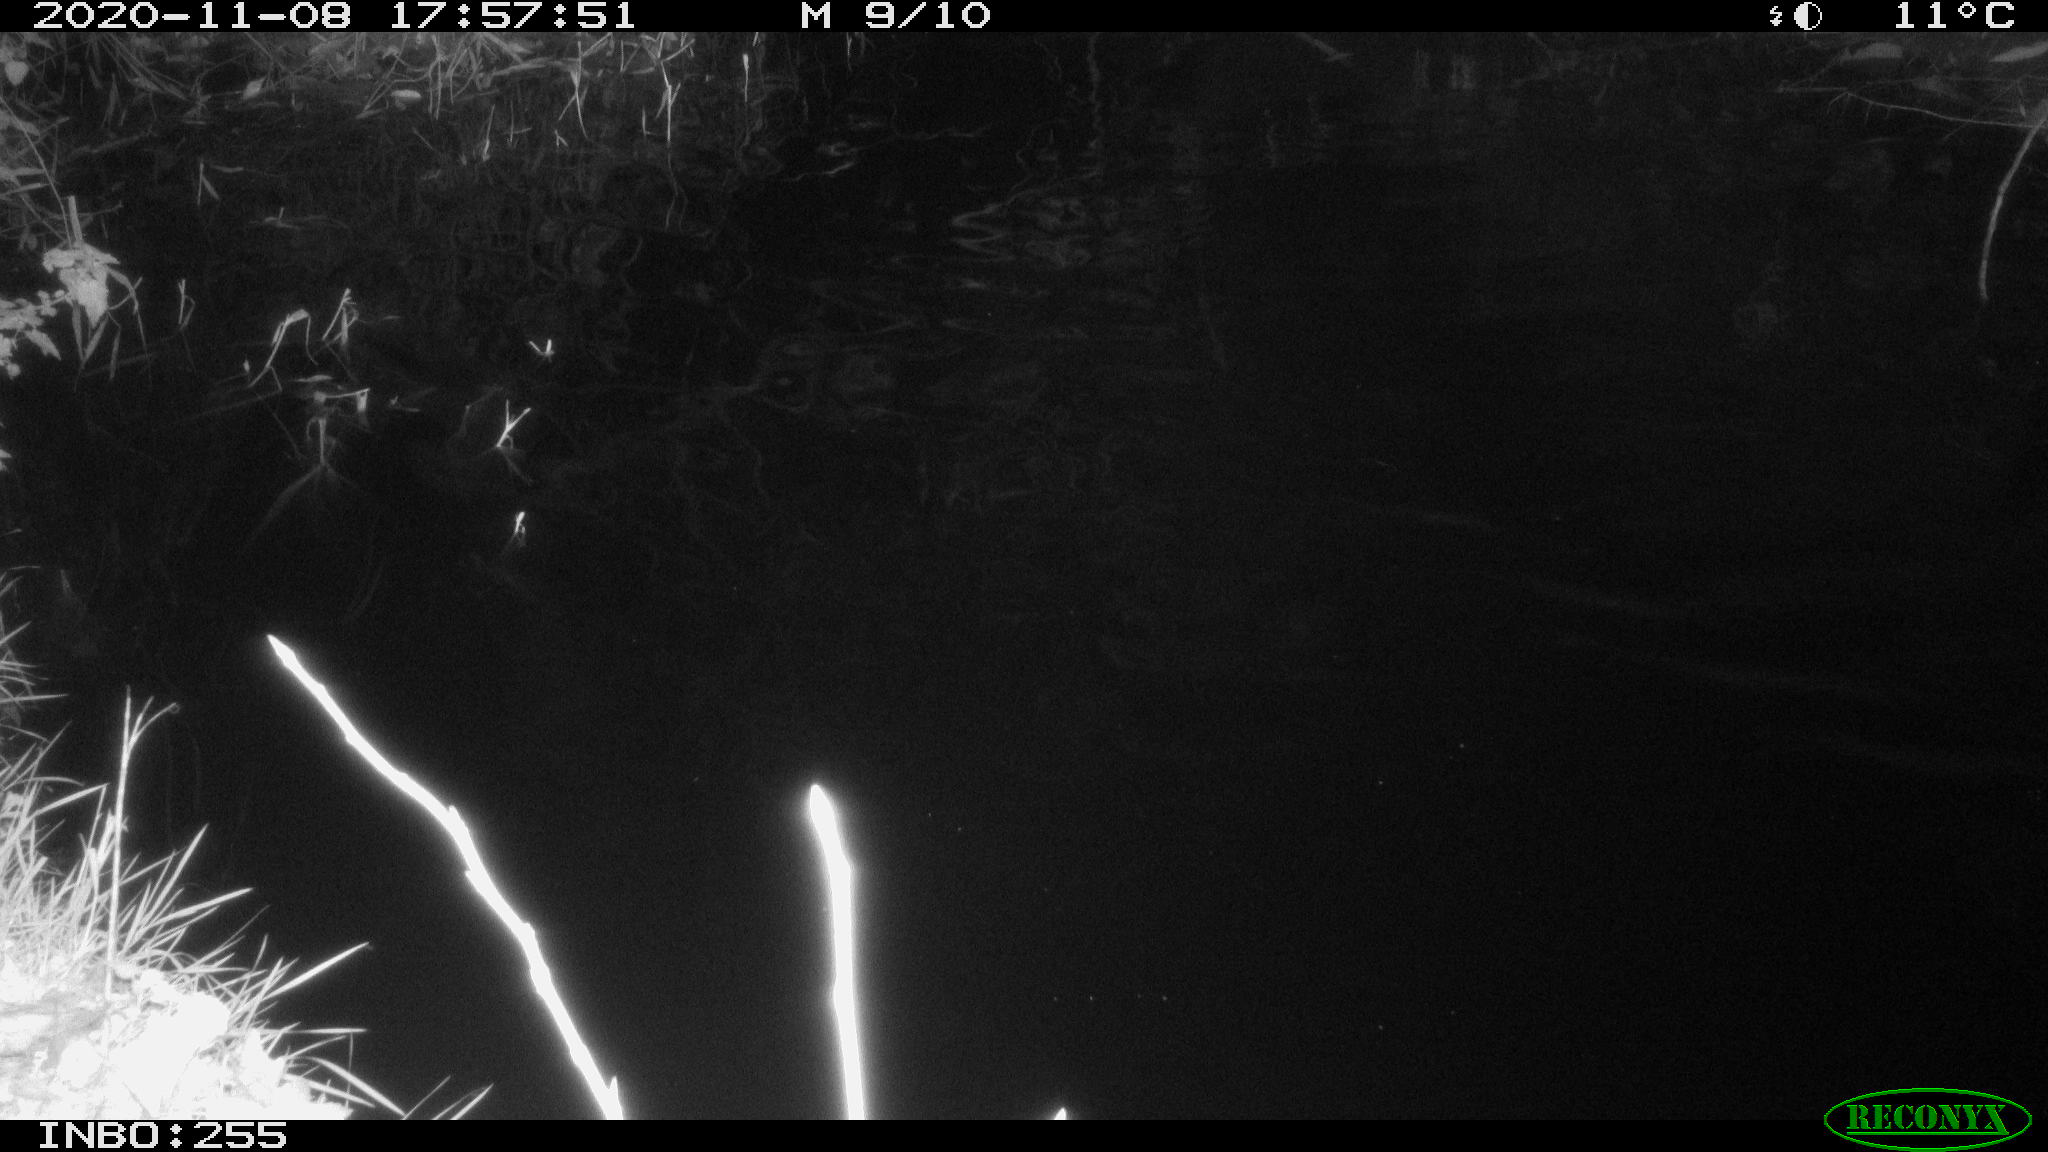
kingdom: Animalia
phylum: Chordata
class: Aves
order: Anseriformes
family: Anatidae
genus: Aix
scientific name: Aix galericulata
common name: Mandarin duck
